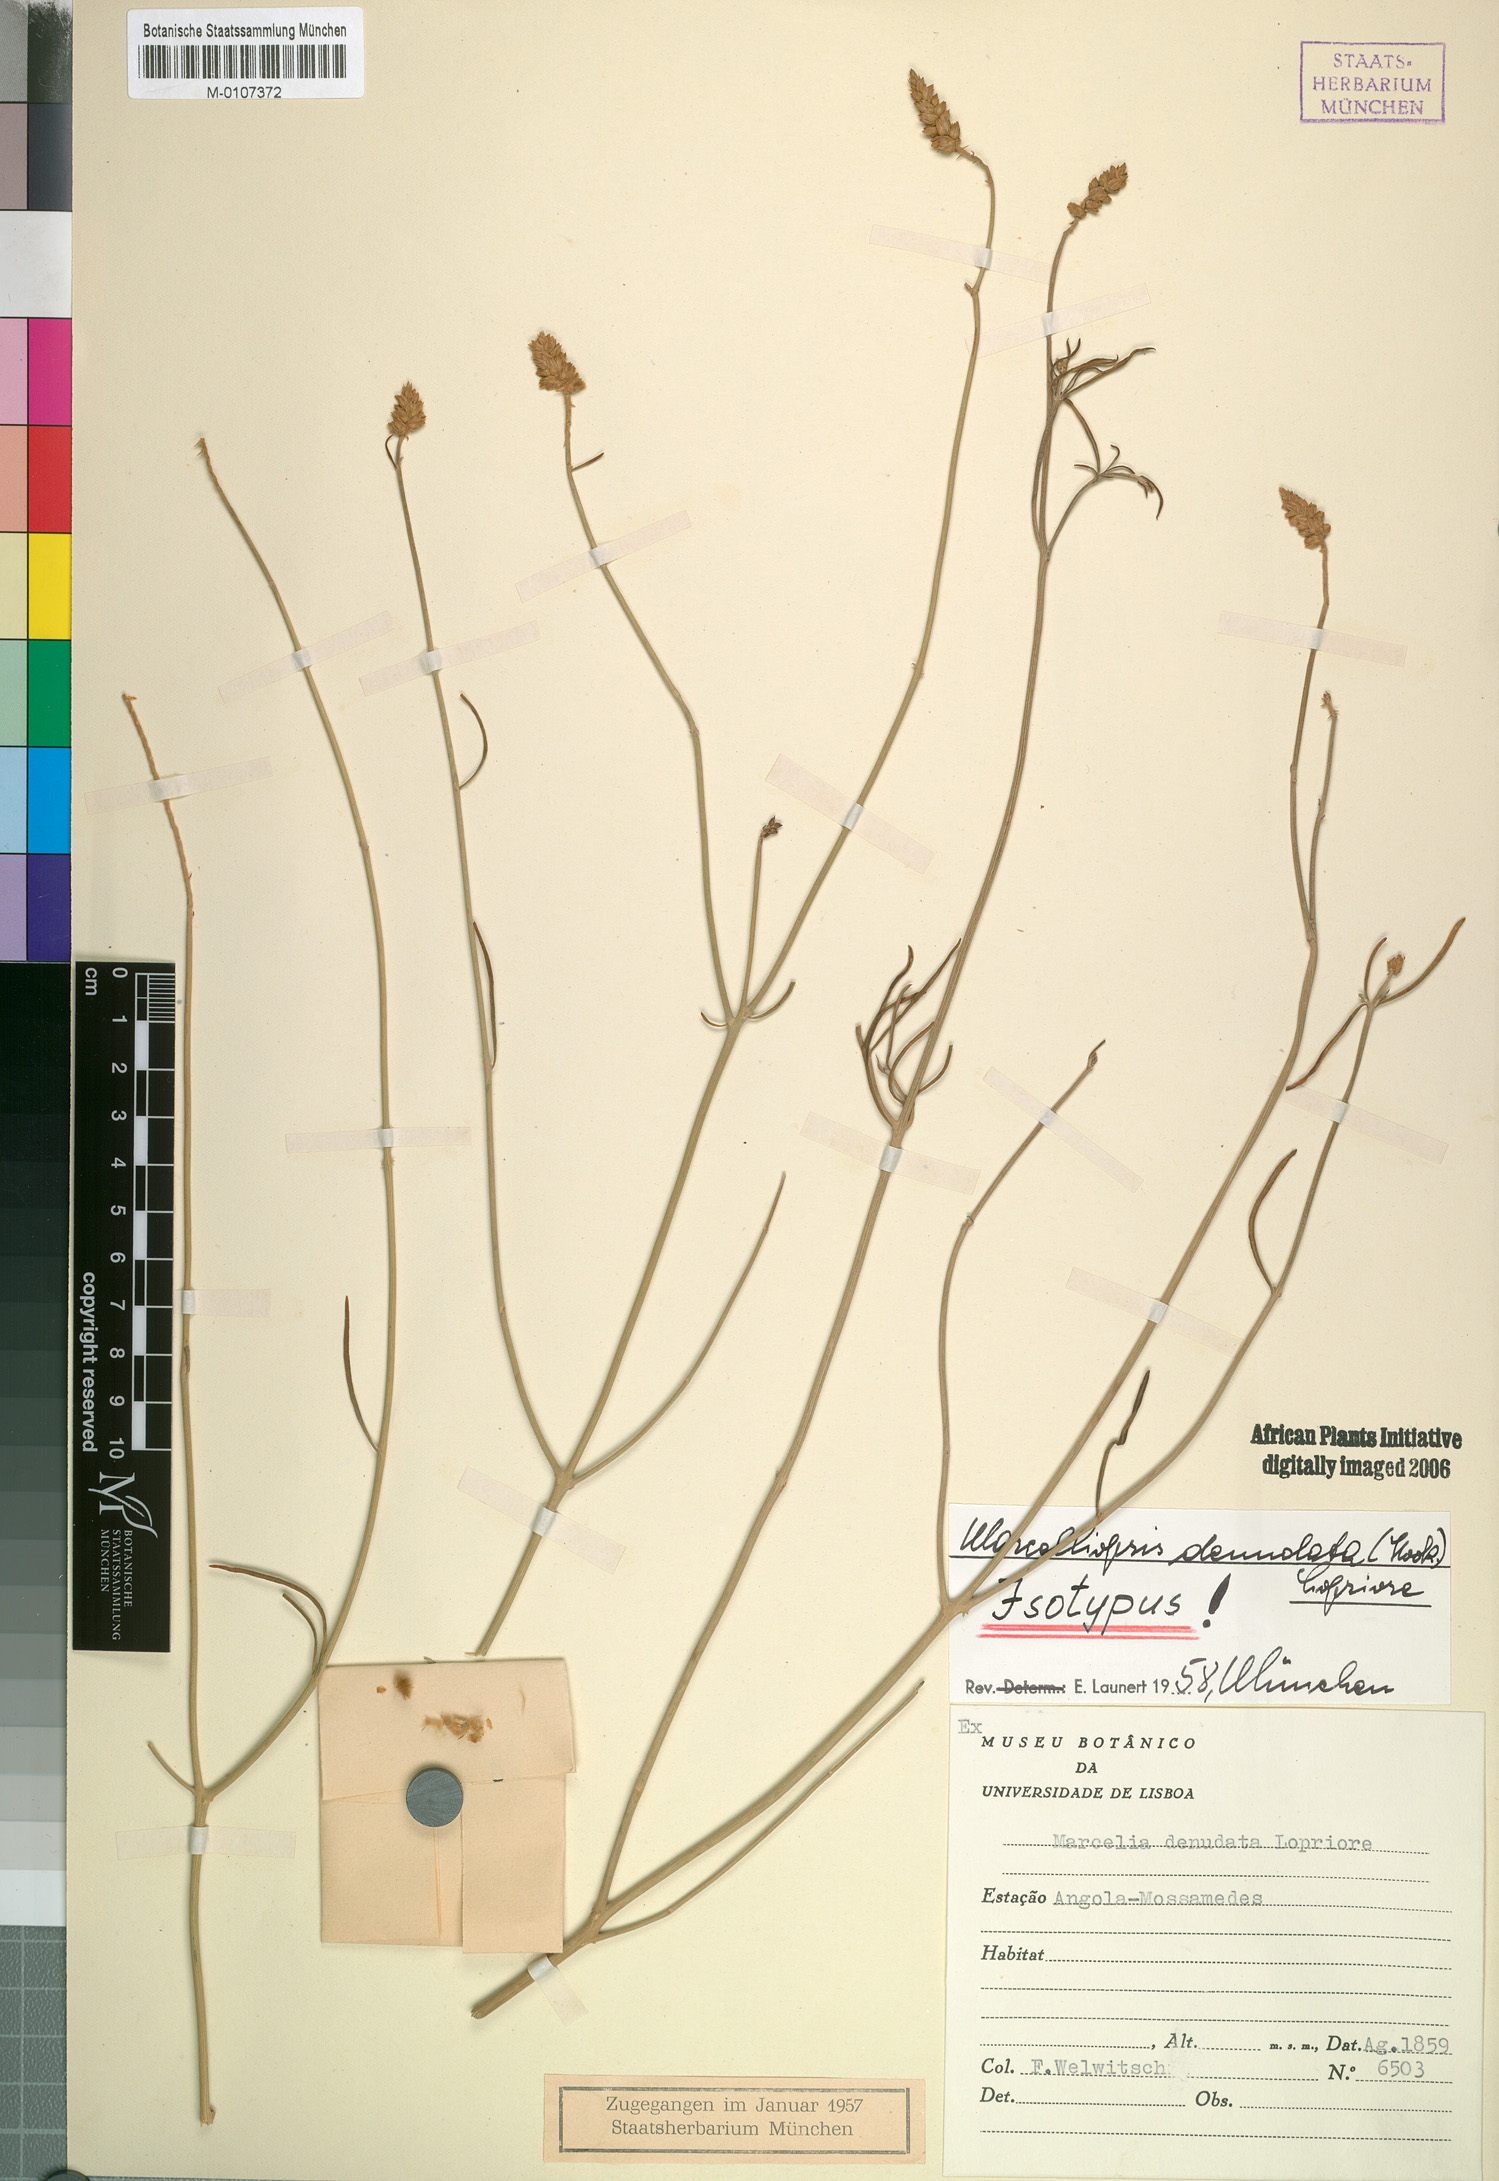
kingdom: Plantae
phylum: Tracheophyta
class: Magnoliopsida
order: Caryophyllales
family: Amaranthaceae
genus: Marcelliopsis
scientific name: Marcelliopsis denudata
